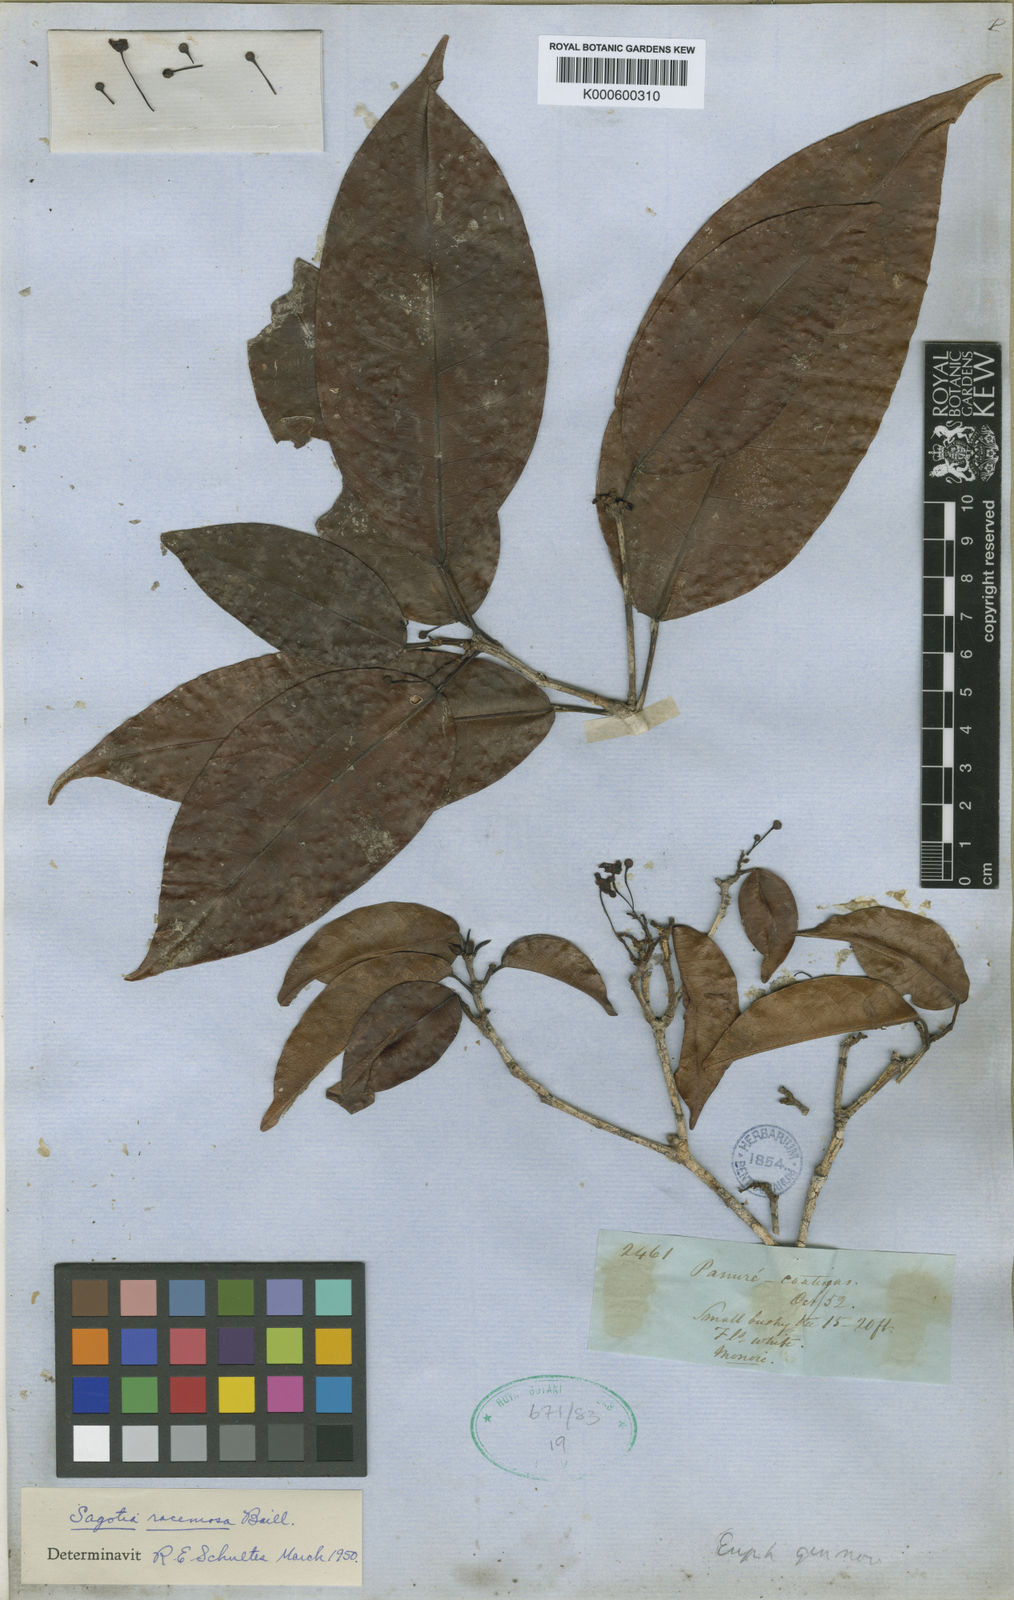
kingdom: Plantae
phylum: Tracheophyta
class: Magnoliopsida
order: Malpighiales
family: Euphorbiaceae
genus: Sagotia
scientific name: Sagotia racemosa
